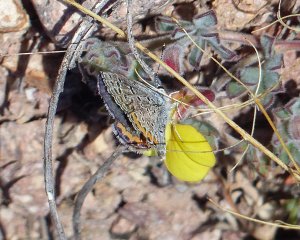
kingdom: Animalia
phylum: Arthropoda
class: Insecta
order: Lepidoptera
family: Lycaenidae
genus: Plebejus
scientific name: Plebejus acmon
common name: Acmon Blue
